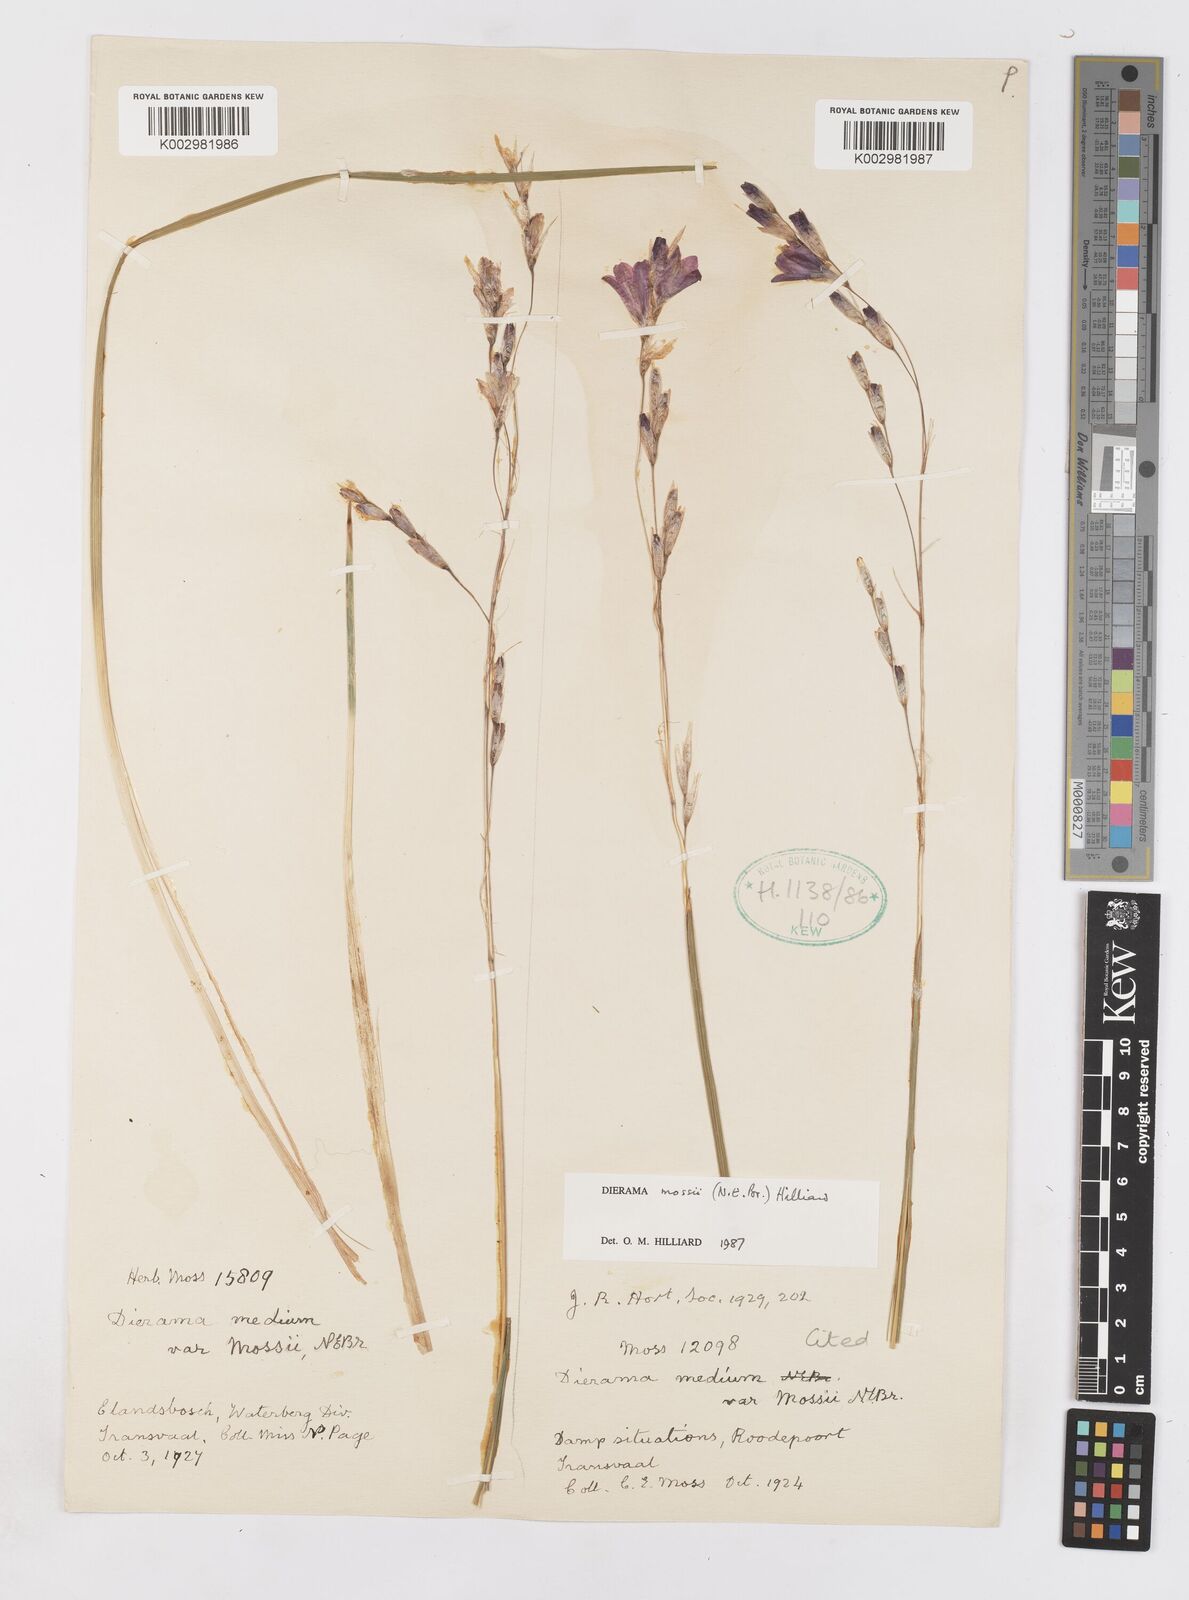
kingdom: Plantae
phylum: Tracheophyta
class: Liliopsida
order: Asparagales
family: Iridaceae
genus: Dierama
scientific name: Dierama mossii
